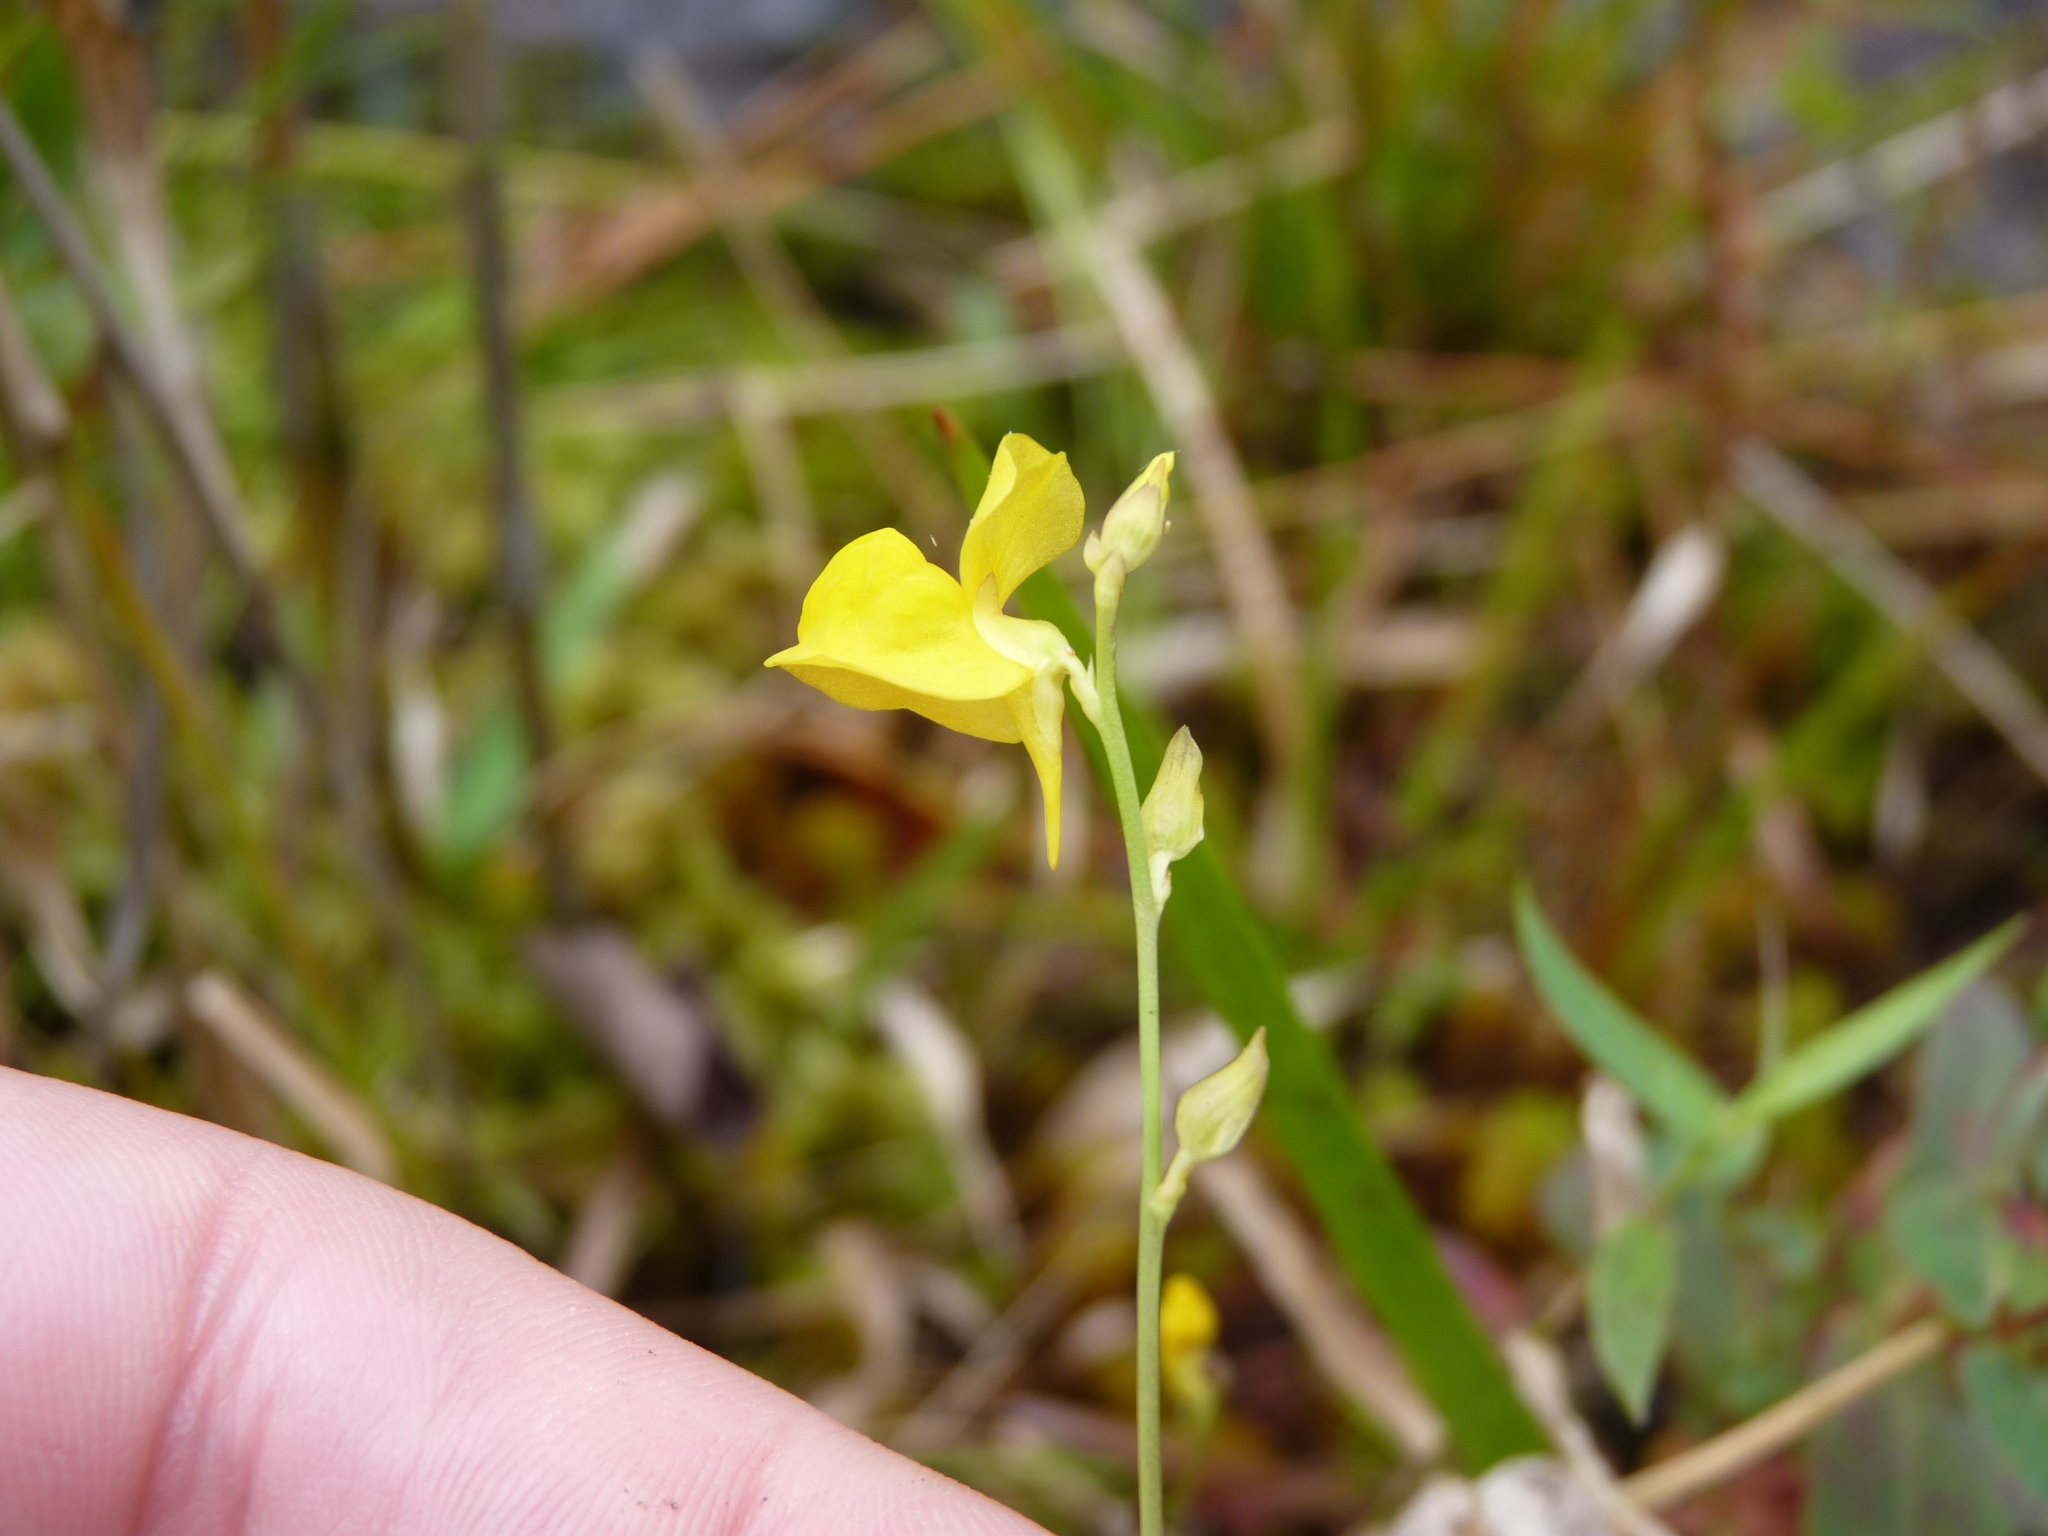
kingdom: Plantae
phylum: Tracheophyta
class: Magnoliopsida
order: Lamiales
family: Lentibulariaceae
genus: Utricularia
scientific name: Utricularia cornuta
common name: horned bladderwort
